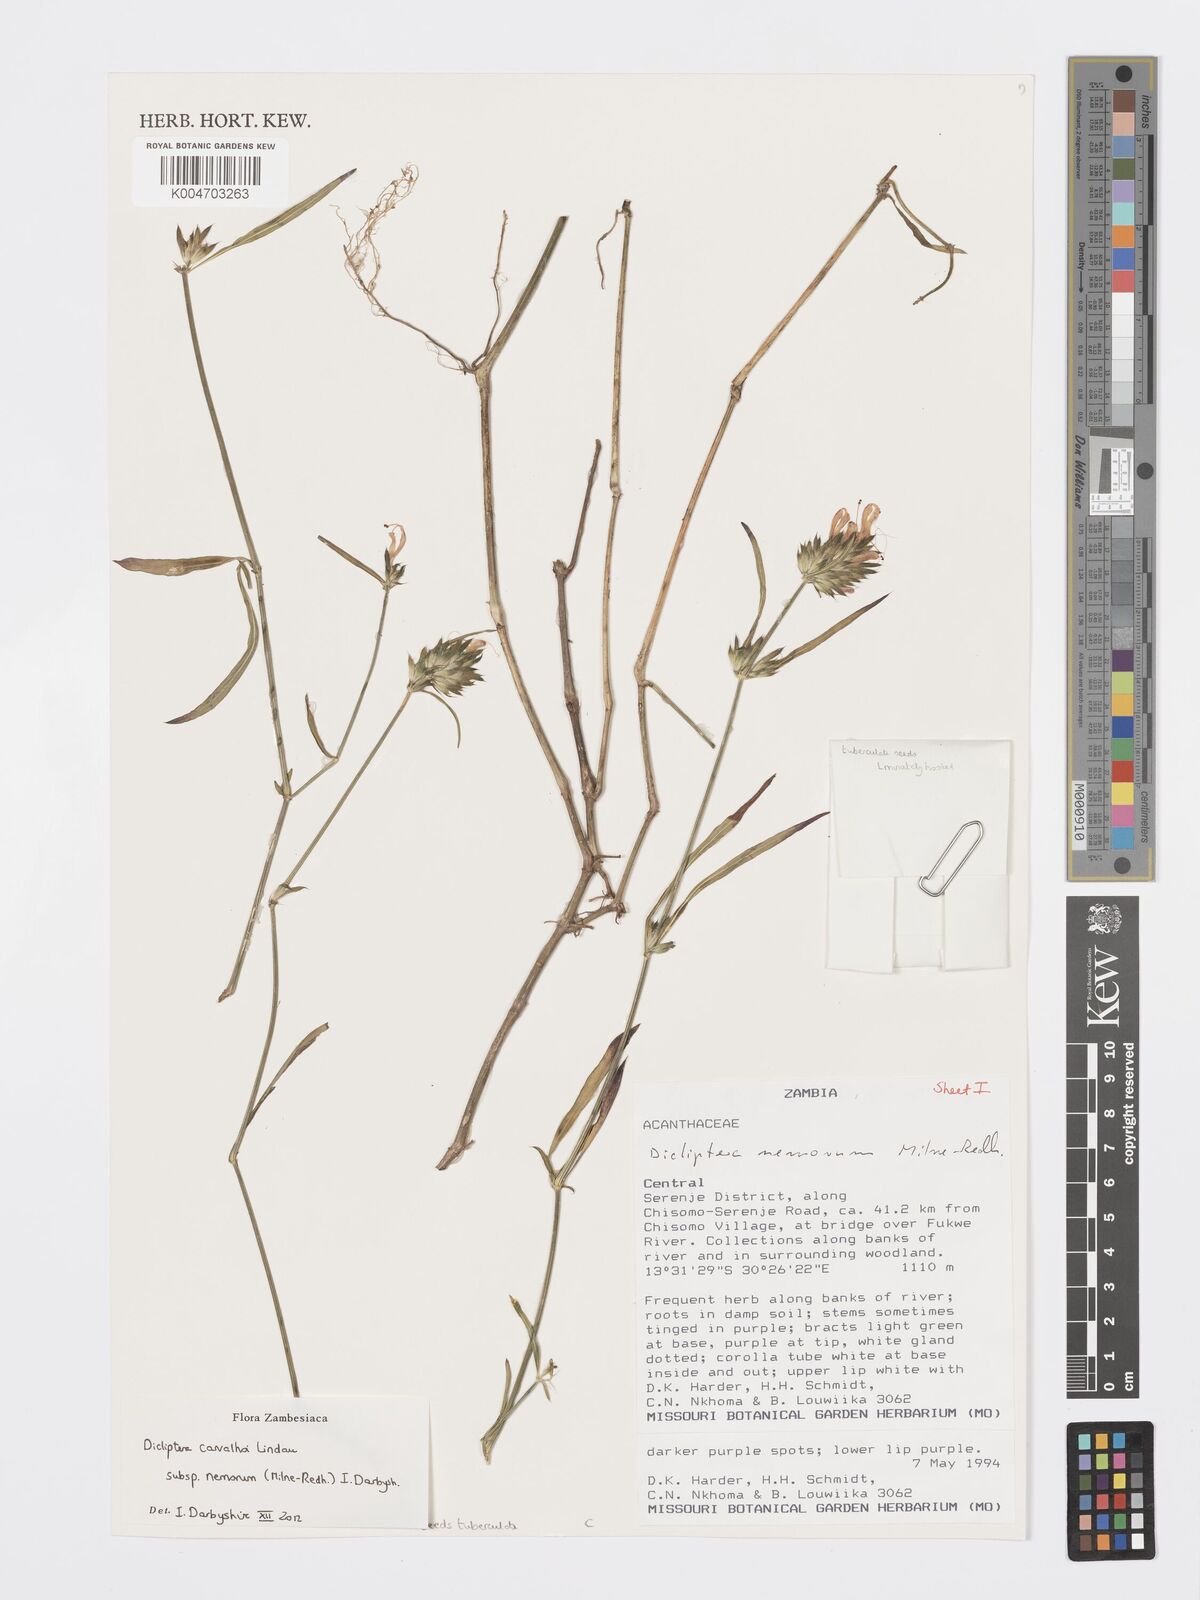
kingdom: Plantae
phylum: Tracheophyta
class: Magnoliopsida
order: Lamiales
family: Acanthaceae
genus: Dicliptera
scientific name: Dicliptera carvalhoi
